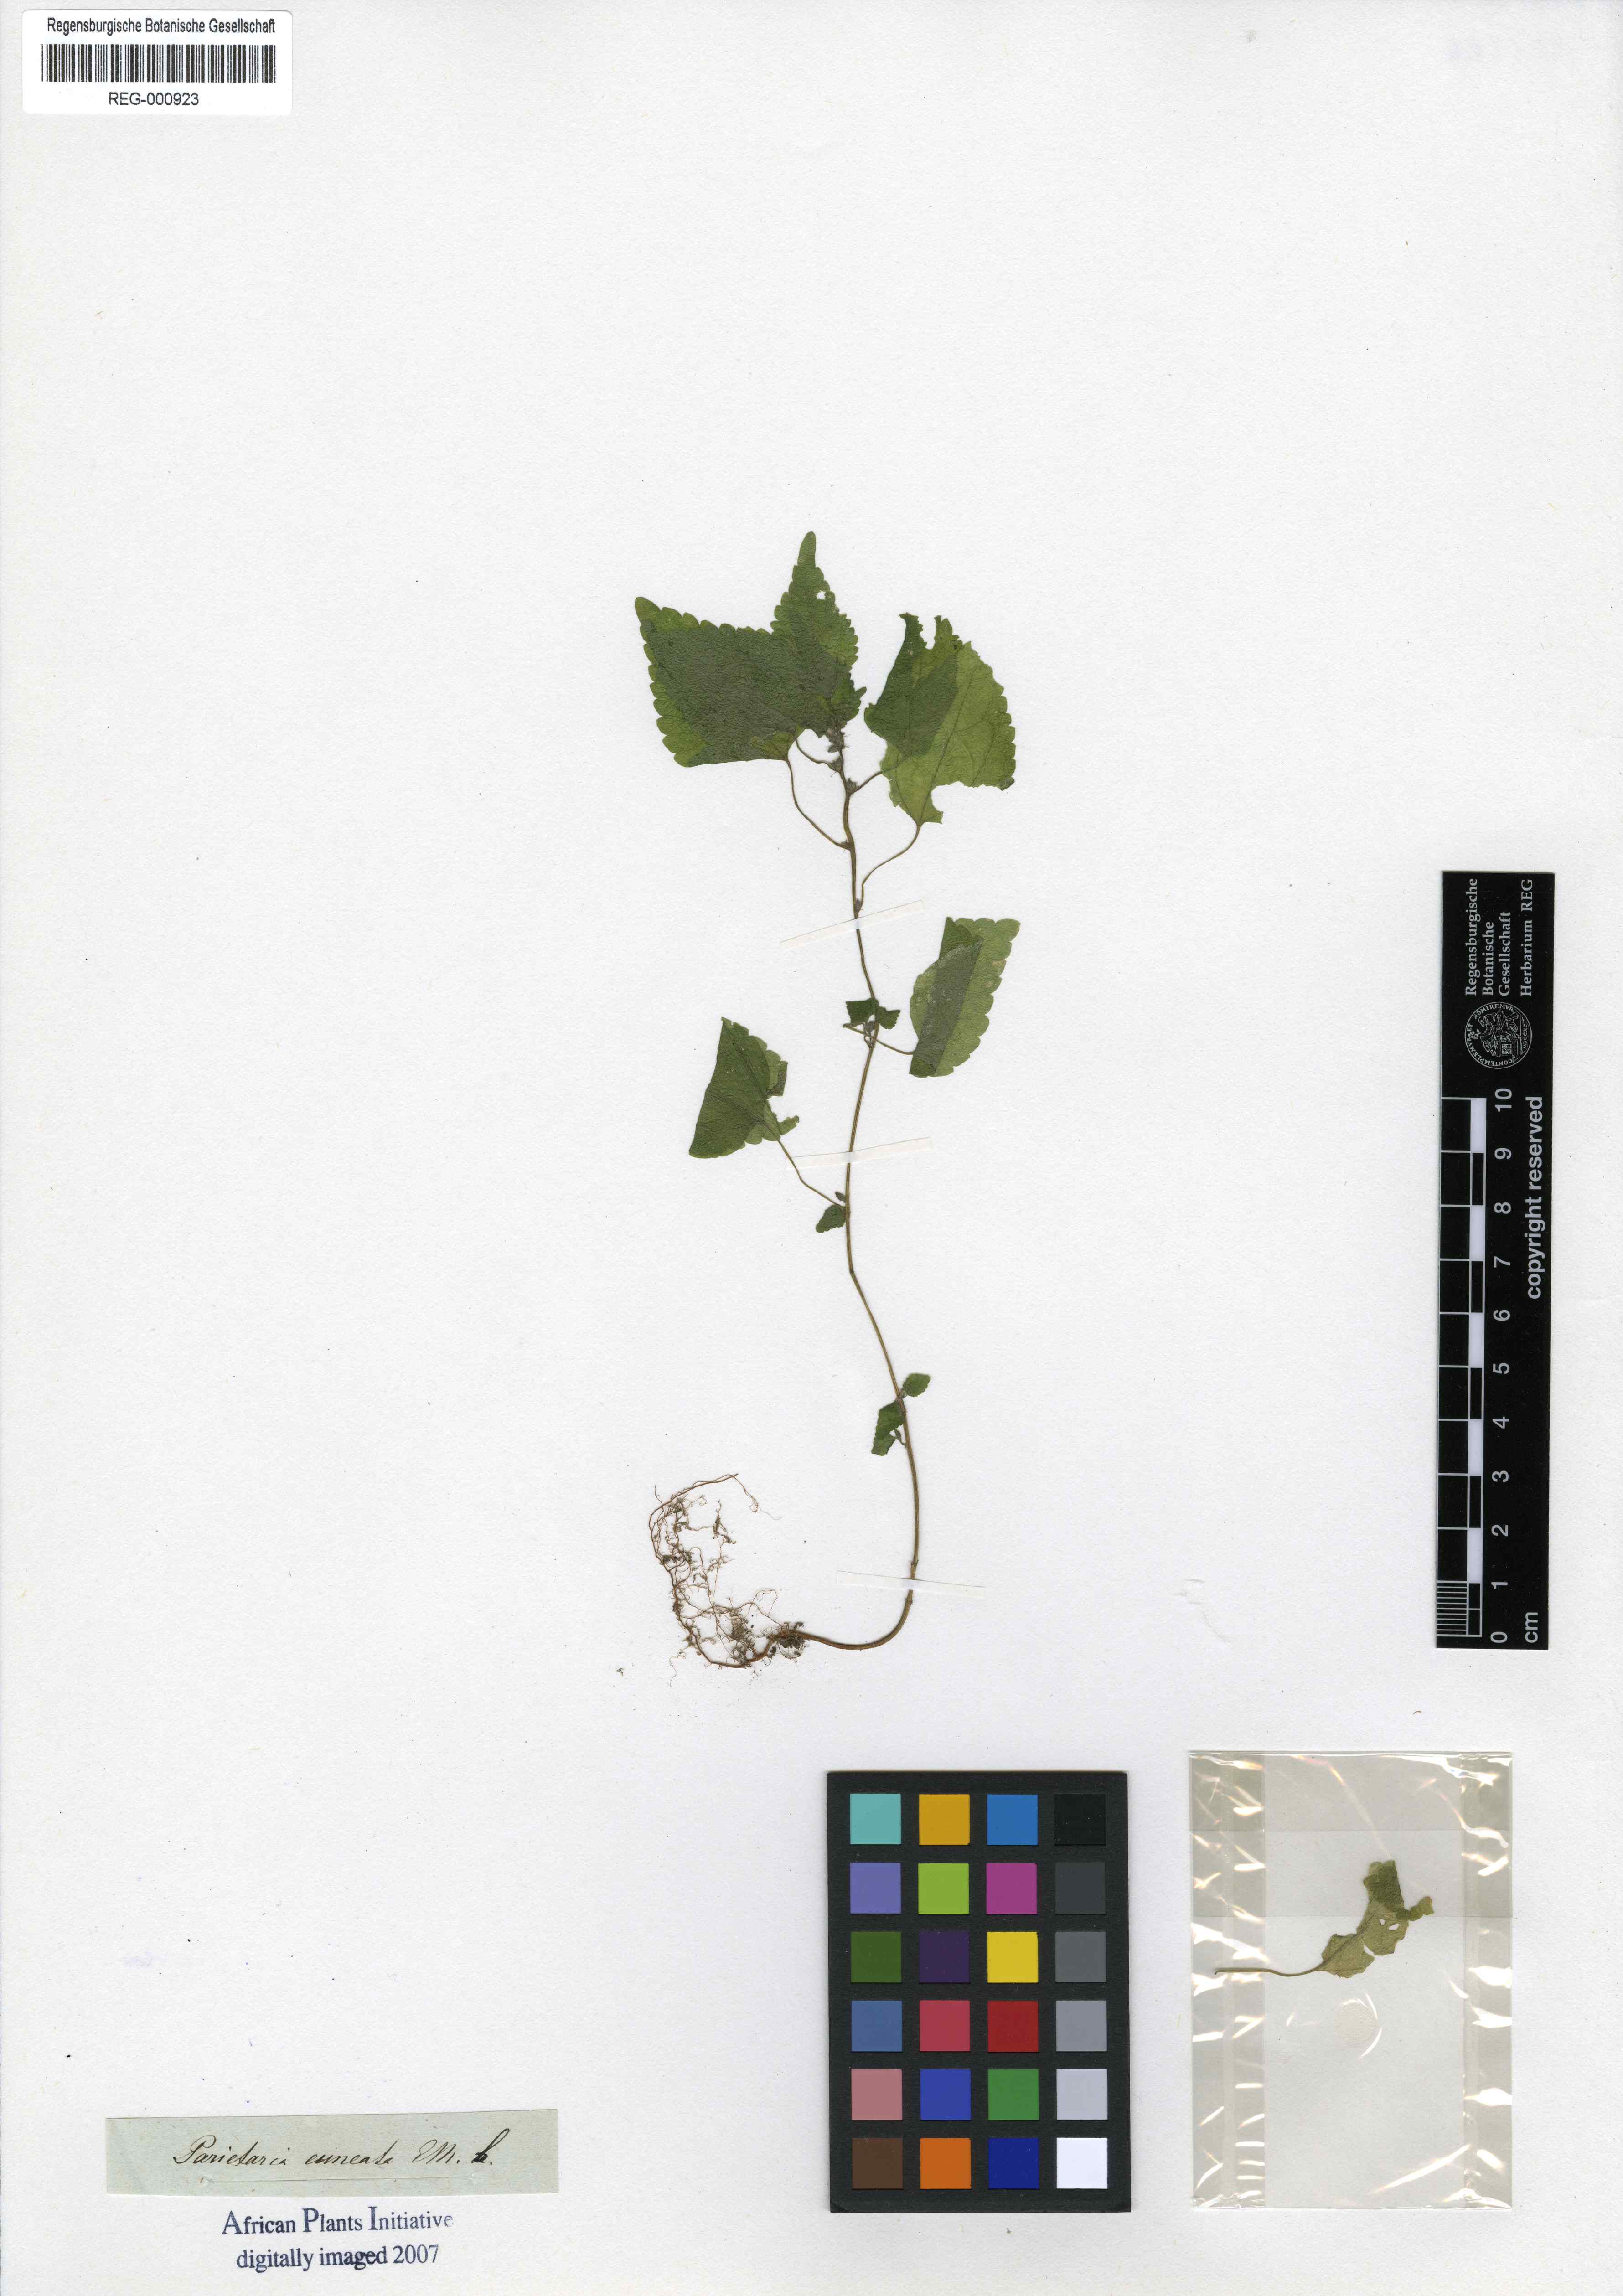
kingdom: Plantae
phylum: Tracheophyta
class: Magnoliopsida
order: Rosales
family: Urticaceae
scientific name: Urticaceae
